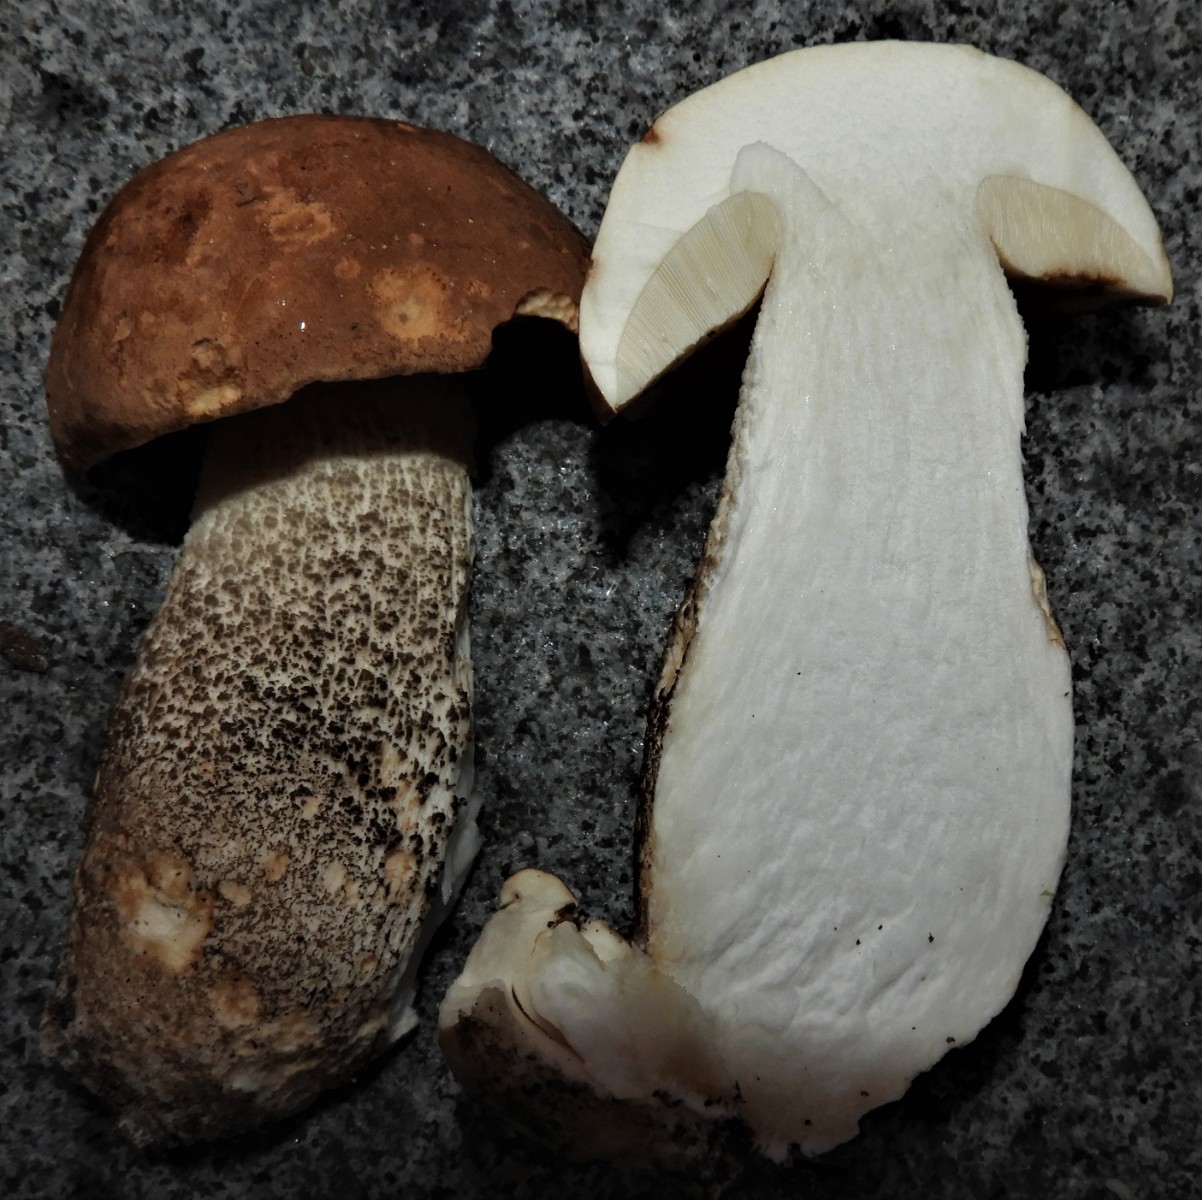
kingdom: Fungi
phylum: Basidiomycota
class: Agaricomycetes
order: Boletales
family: Boletaceae
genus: Leccinum
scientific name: Leccinum
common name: skælrørhat
